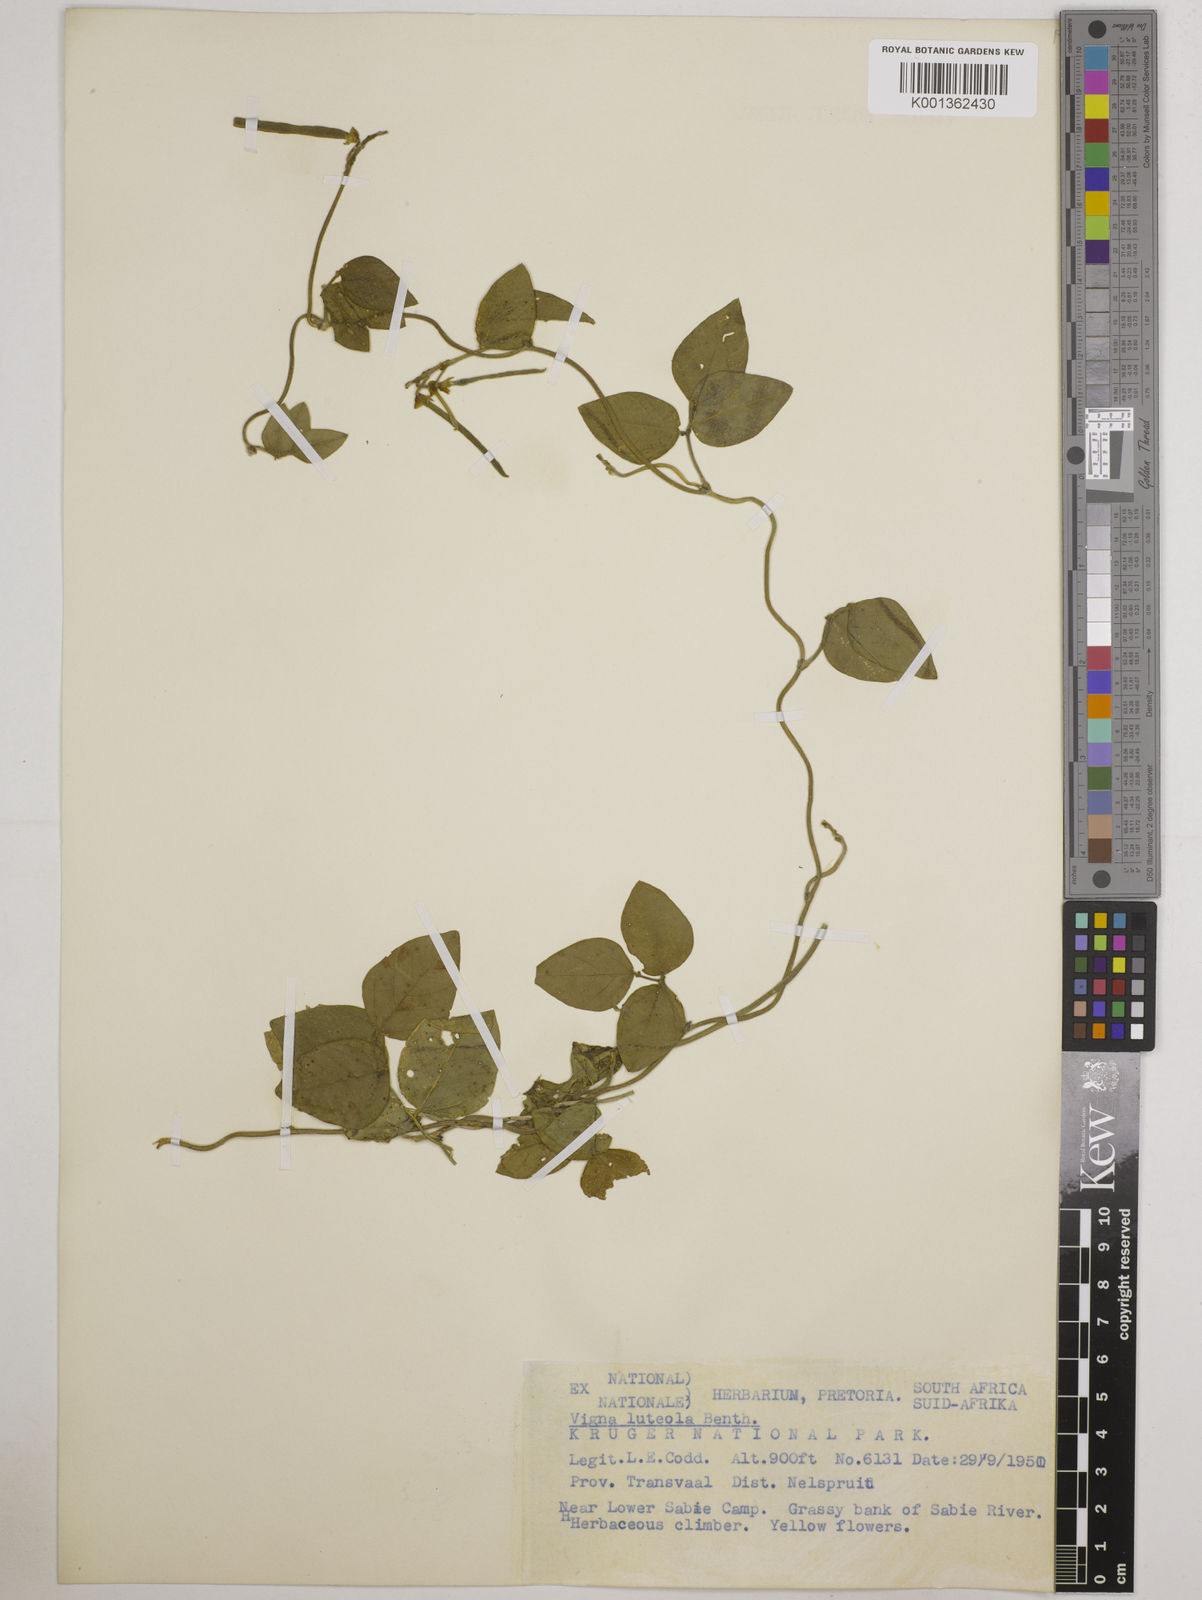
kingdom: Plantae
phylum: Tracheophyta
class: Magnoliopsida
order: Fabales
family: Fabaceae
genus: Vigna
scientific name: Vigna luteola
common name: Hairypod cowpea
